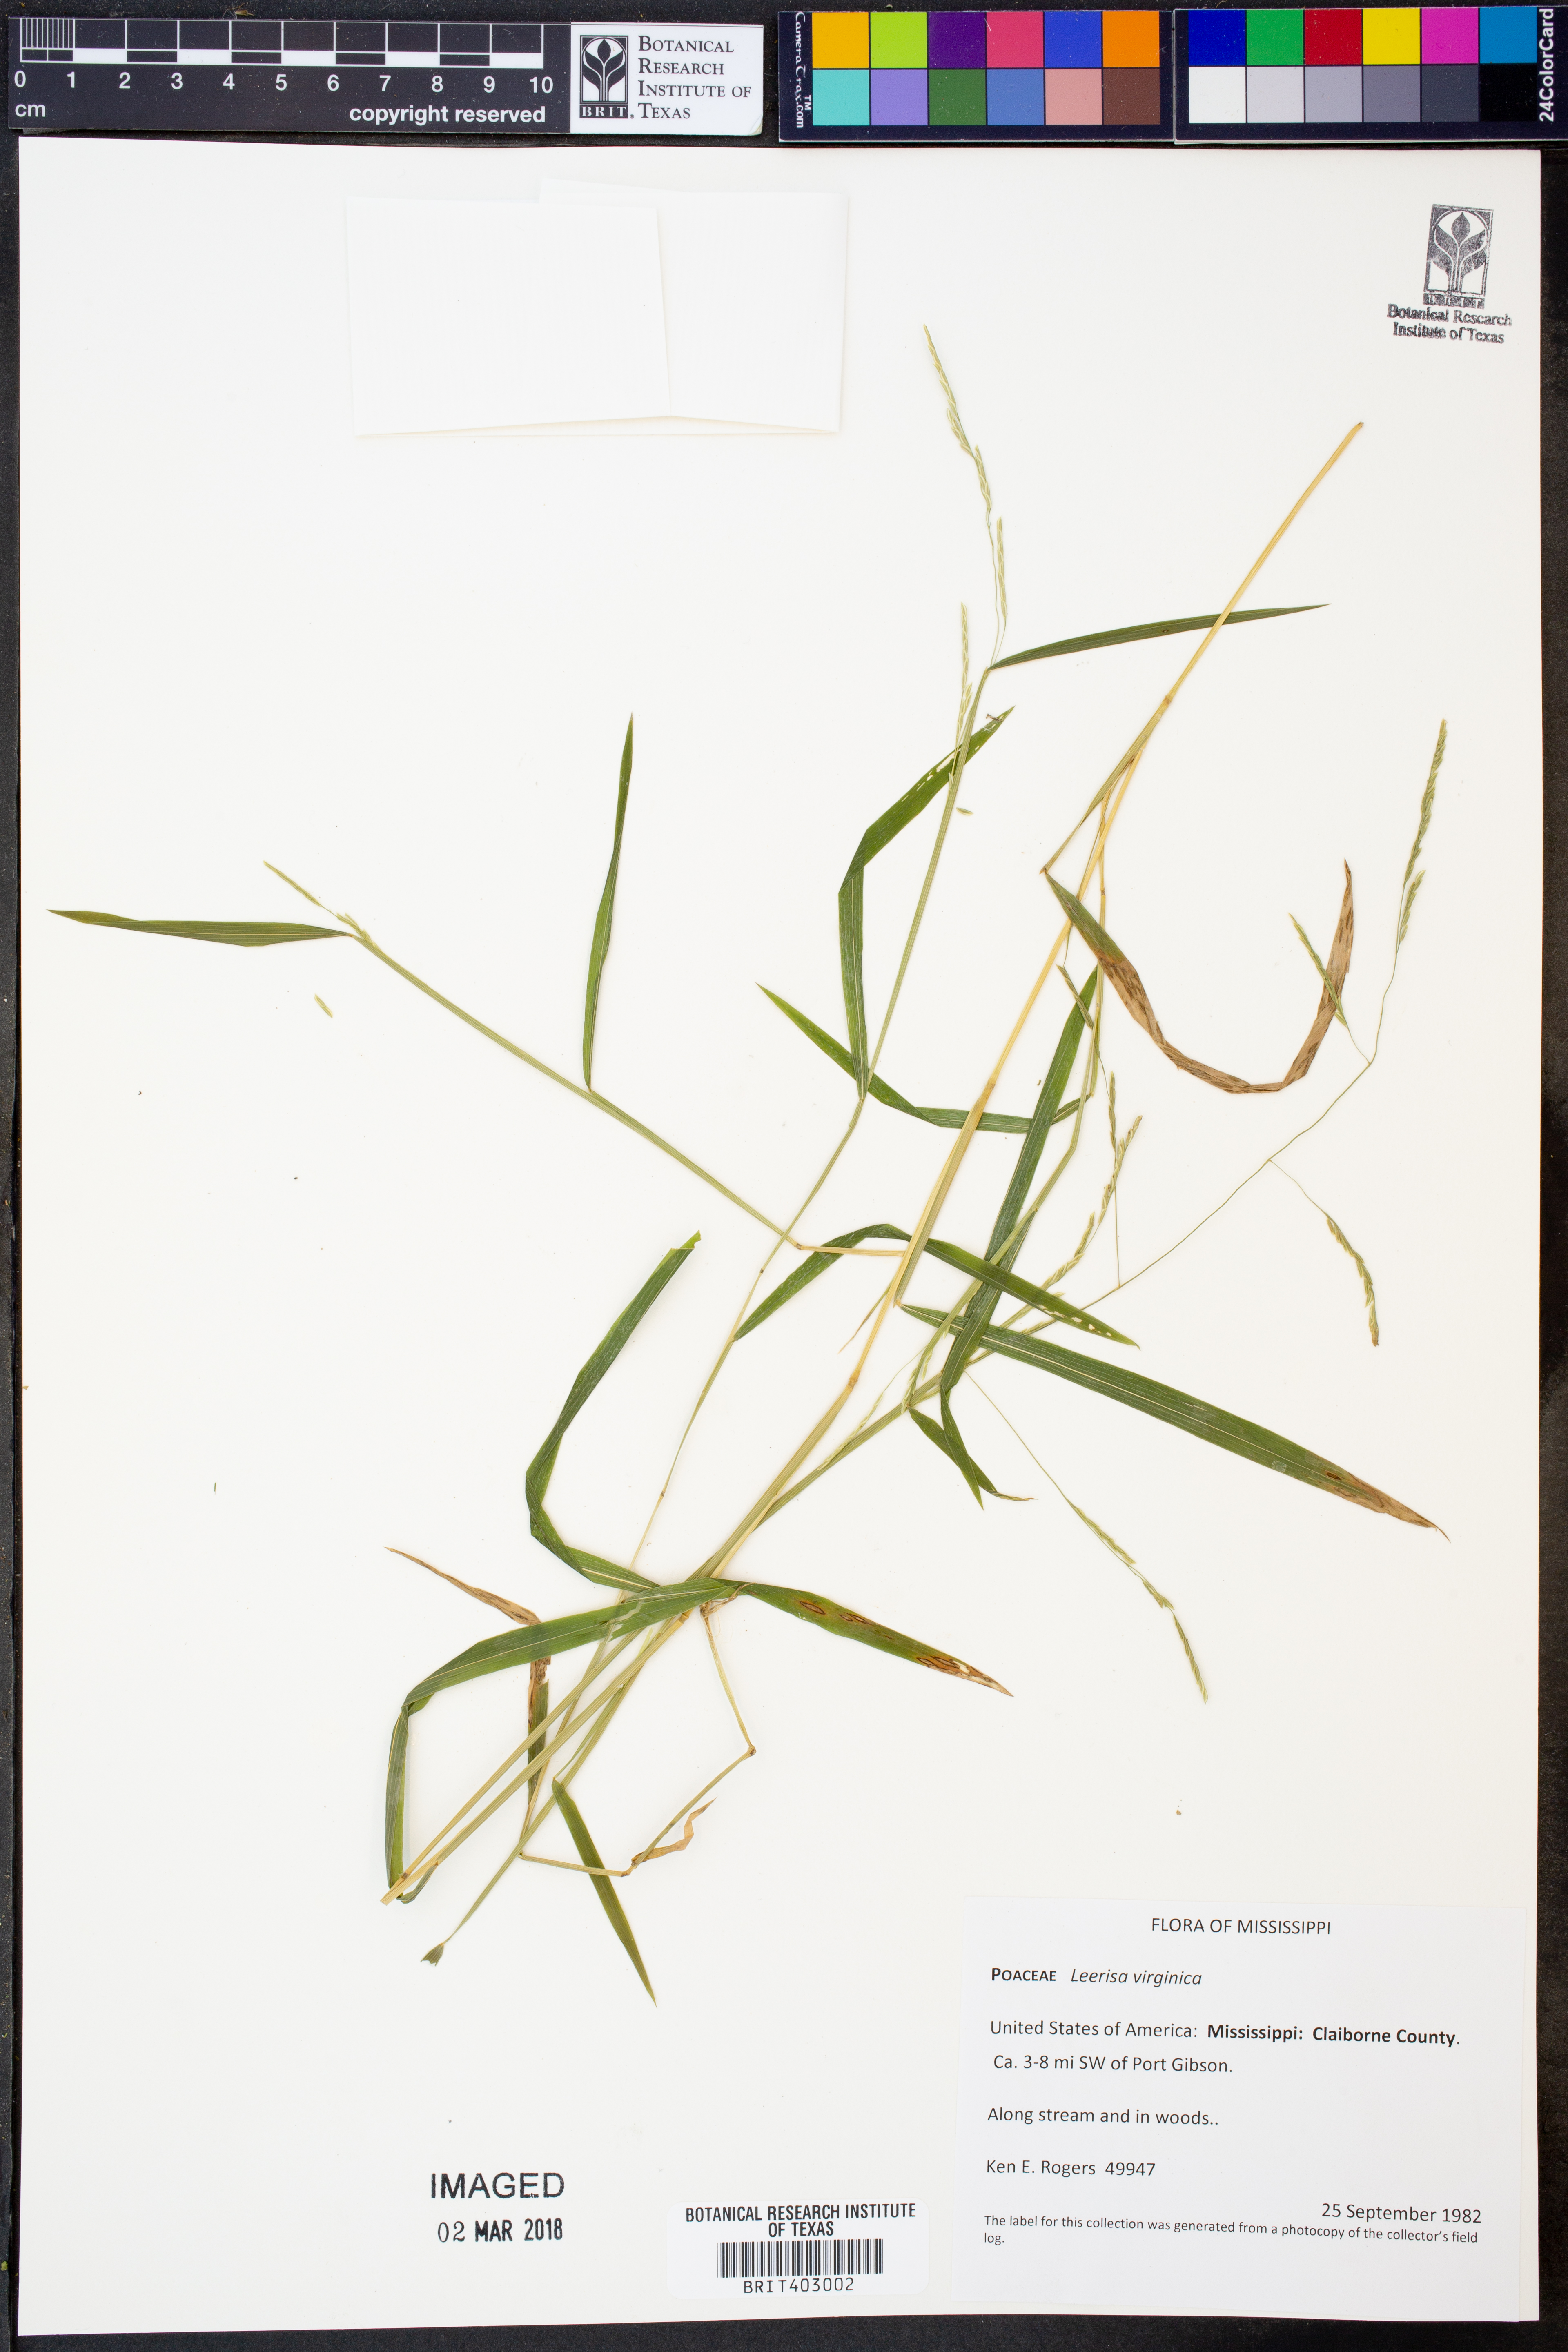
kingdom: Plantae
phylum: Tracheophyta
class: Liliopsida
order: Poales
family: Poaceae
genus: Leersia
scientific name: Leersia virginica
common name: White cutgrass
